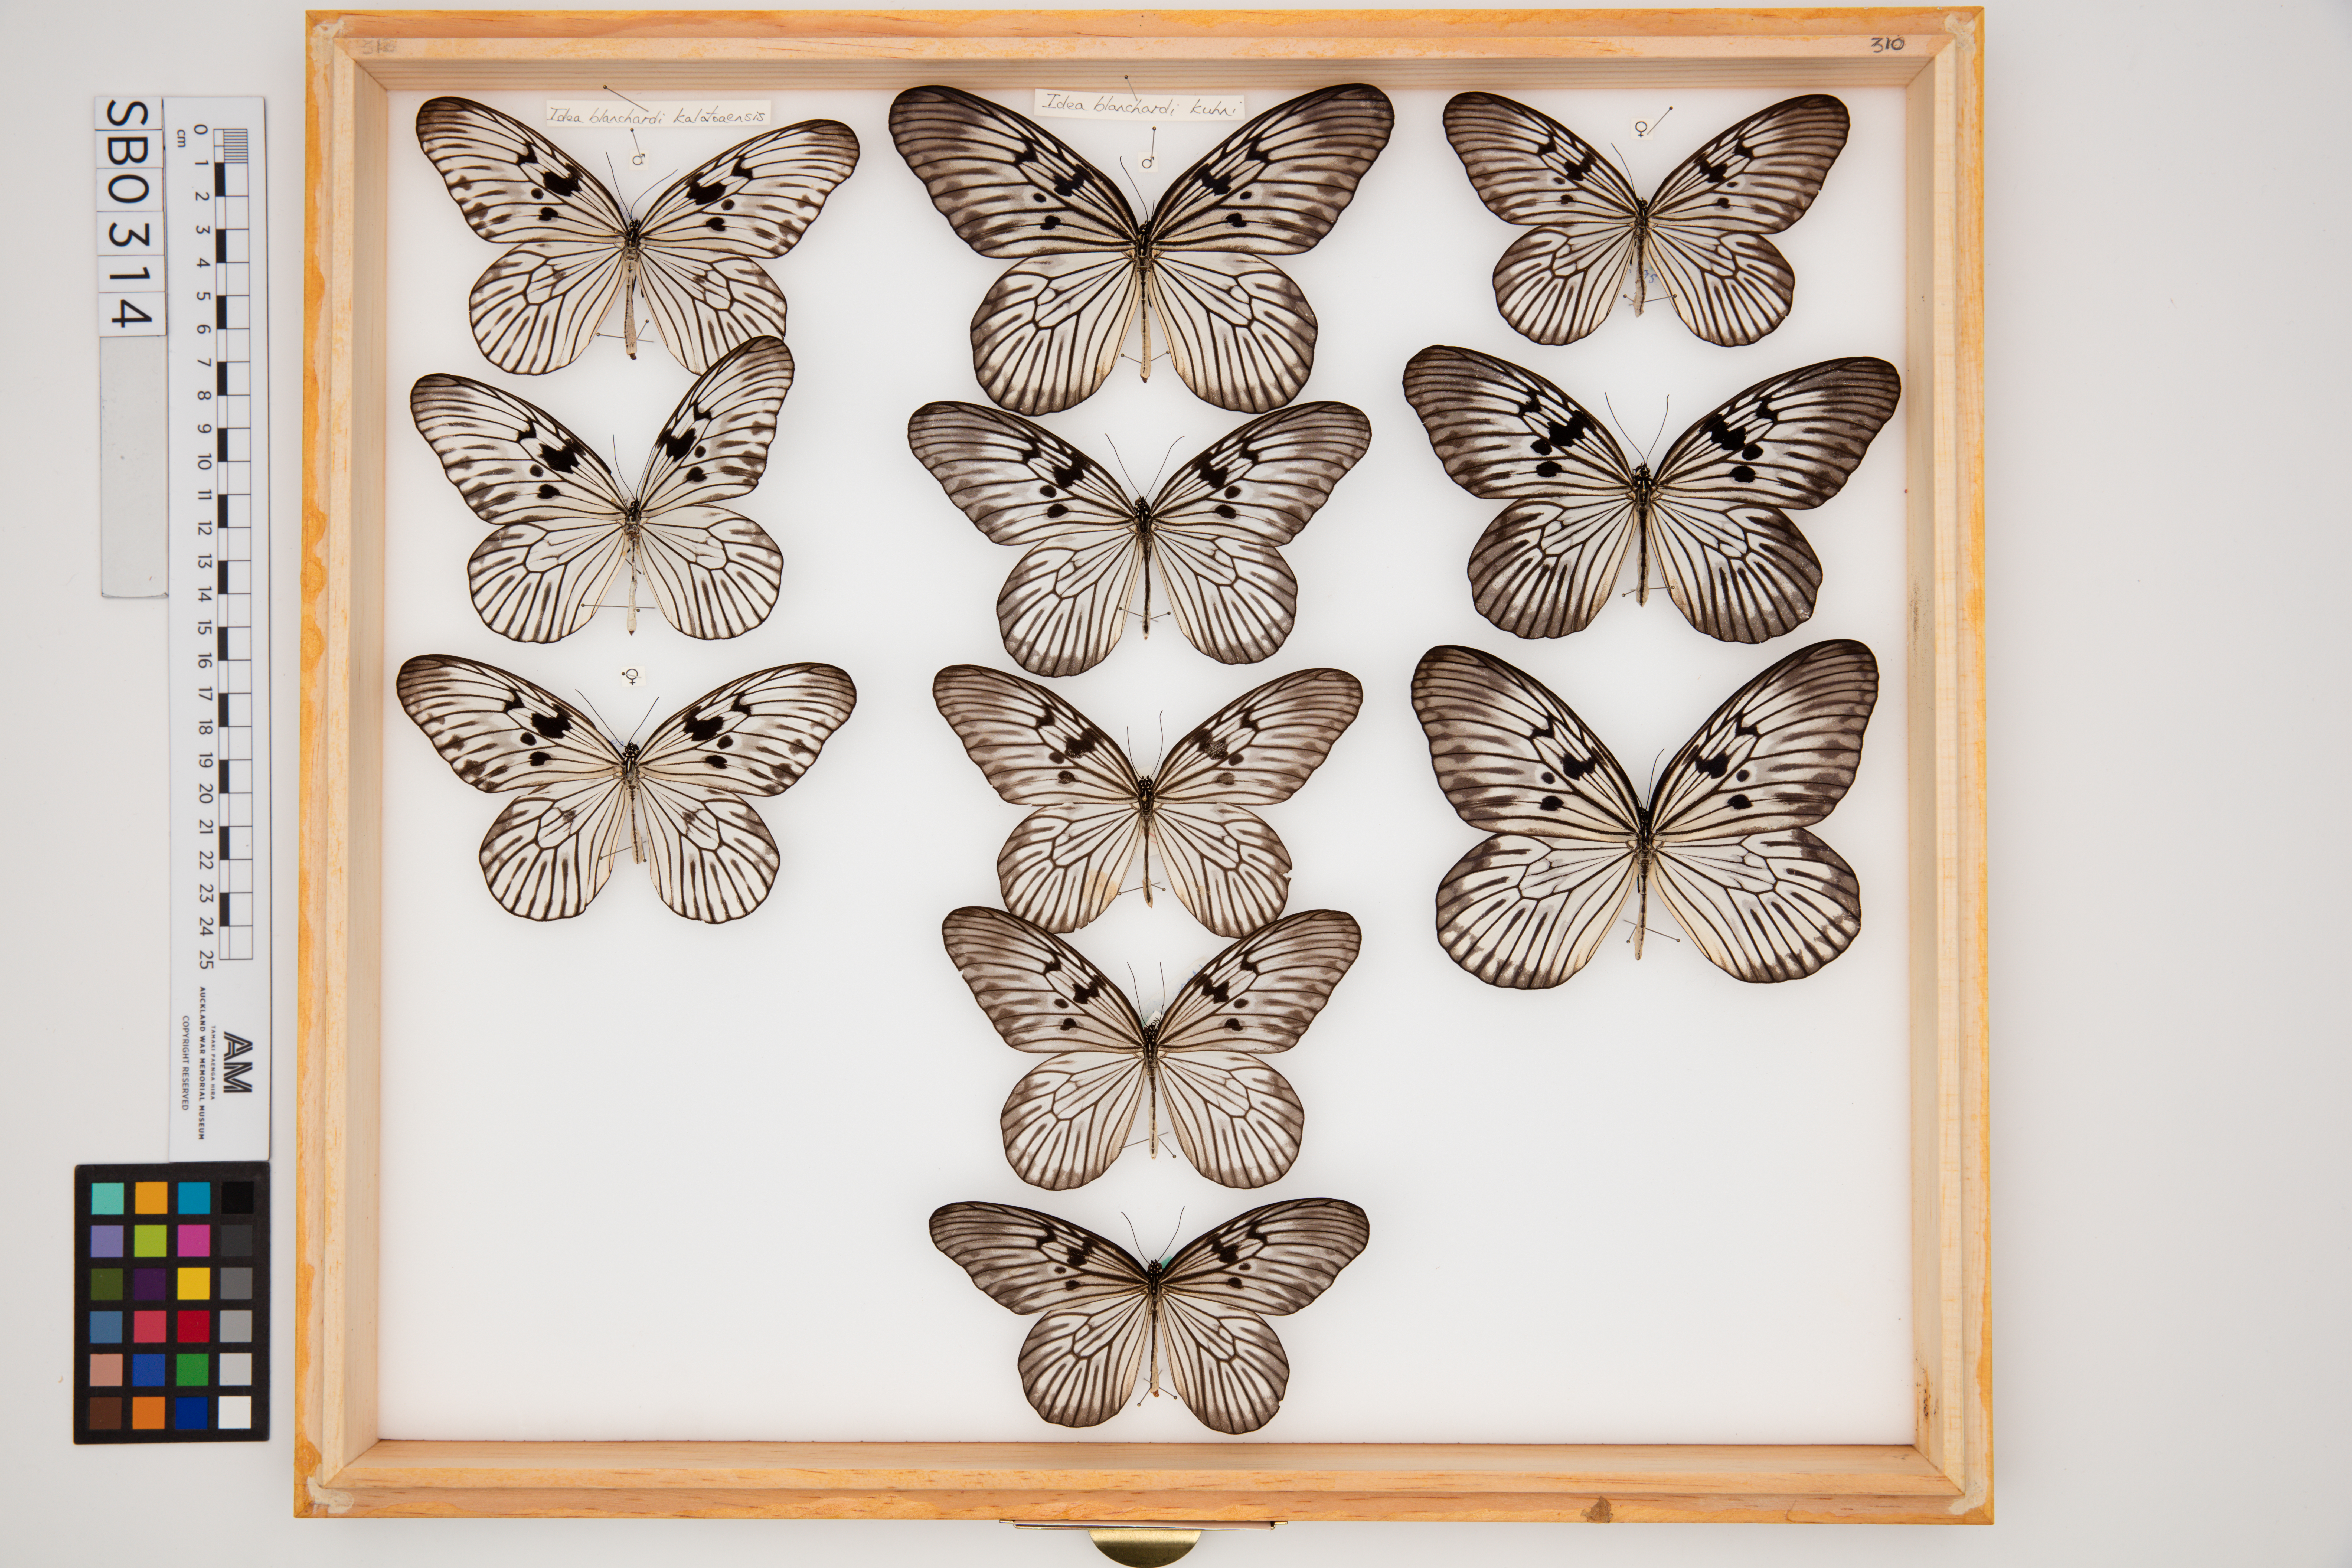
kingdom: Animalia
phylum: Arthropoda
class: Insecta
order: Lepidoptera
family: Nymphalidae
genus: Idea
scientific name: Idea blanchardii
